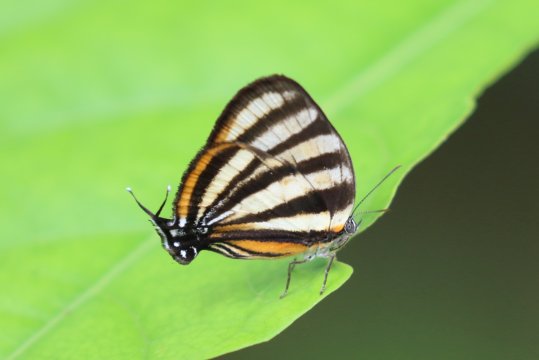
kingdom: Animalia
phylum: Arthropoda
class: Insecta
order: Lepidoptera
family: Lycaenidae
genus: Arawacus
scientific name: Arawacus separata
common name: Separated Stripestreak
